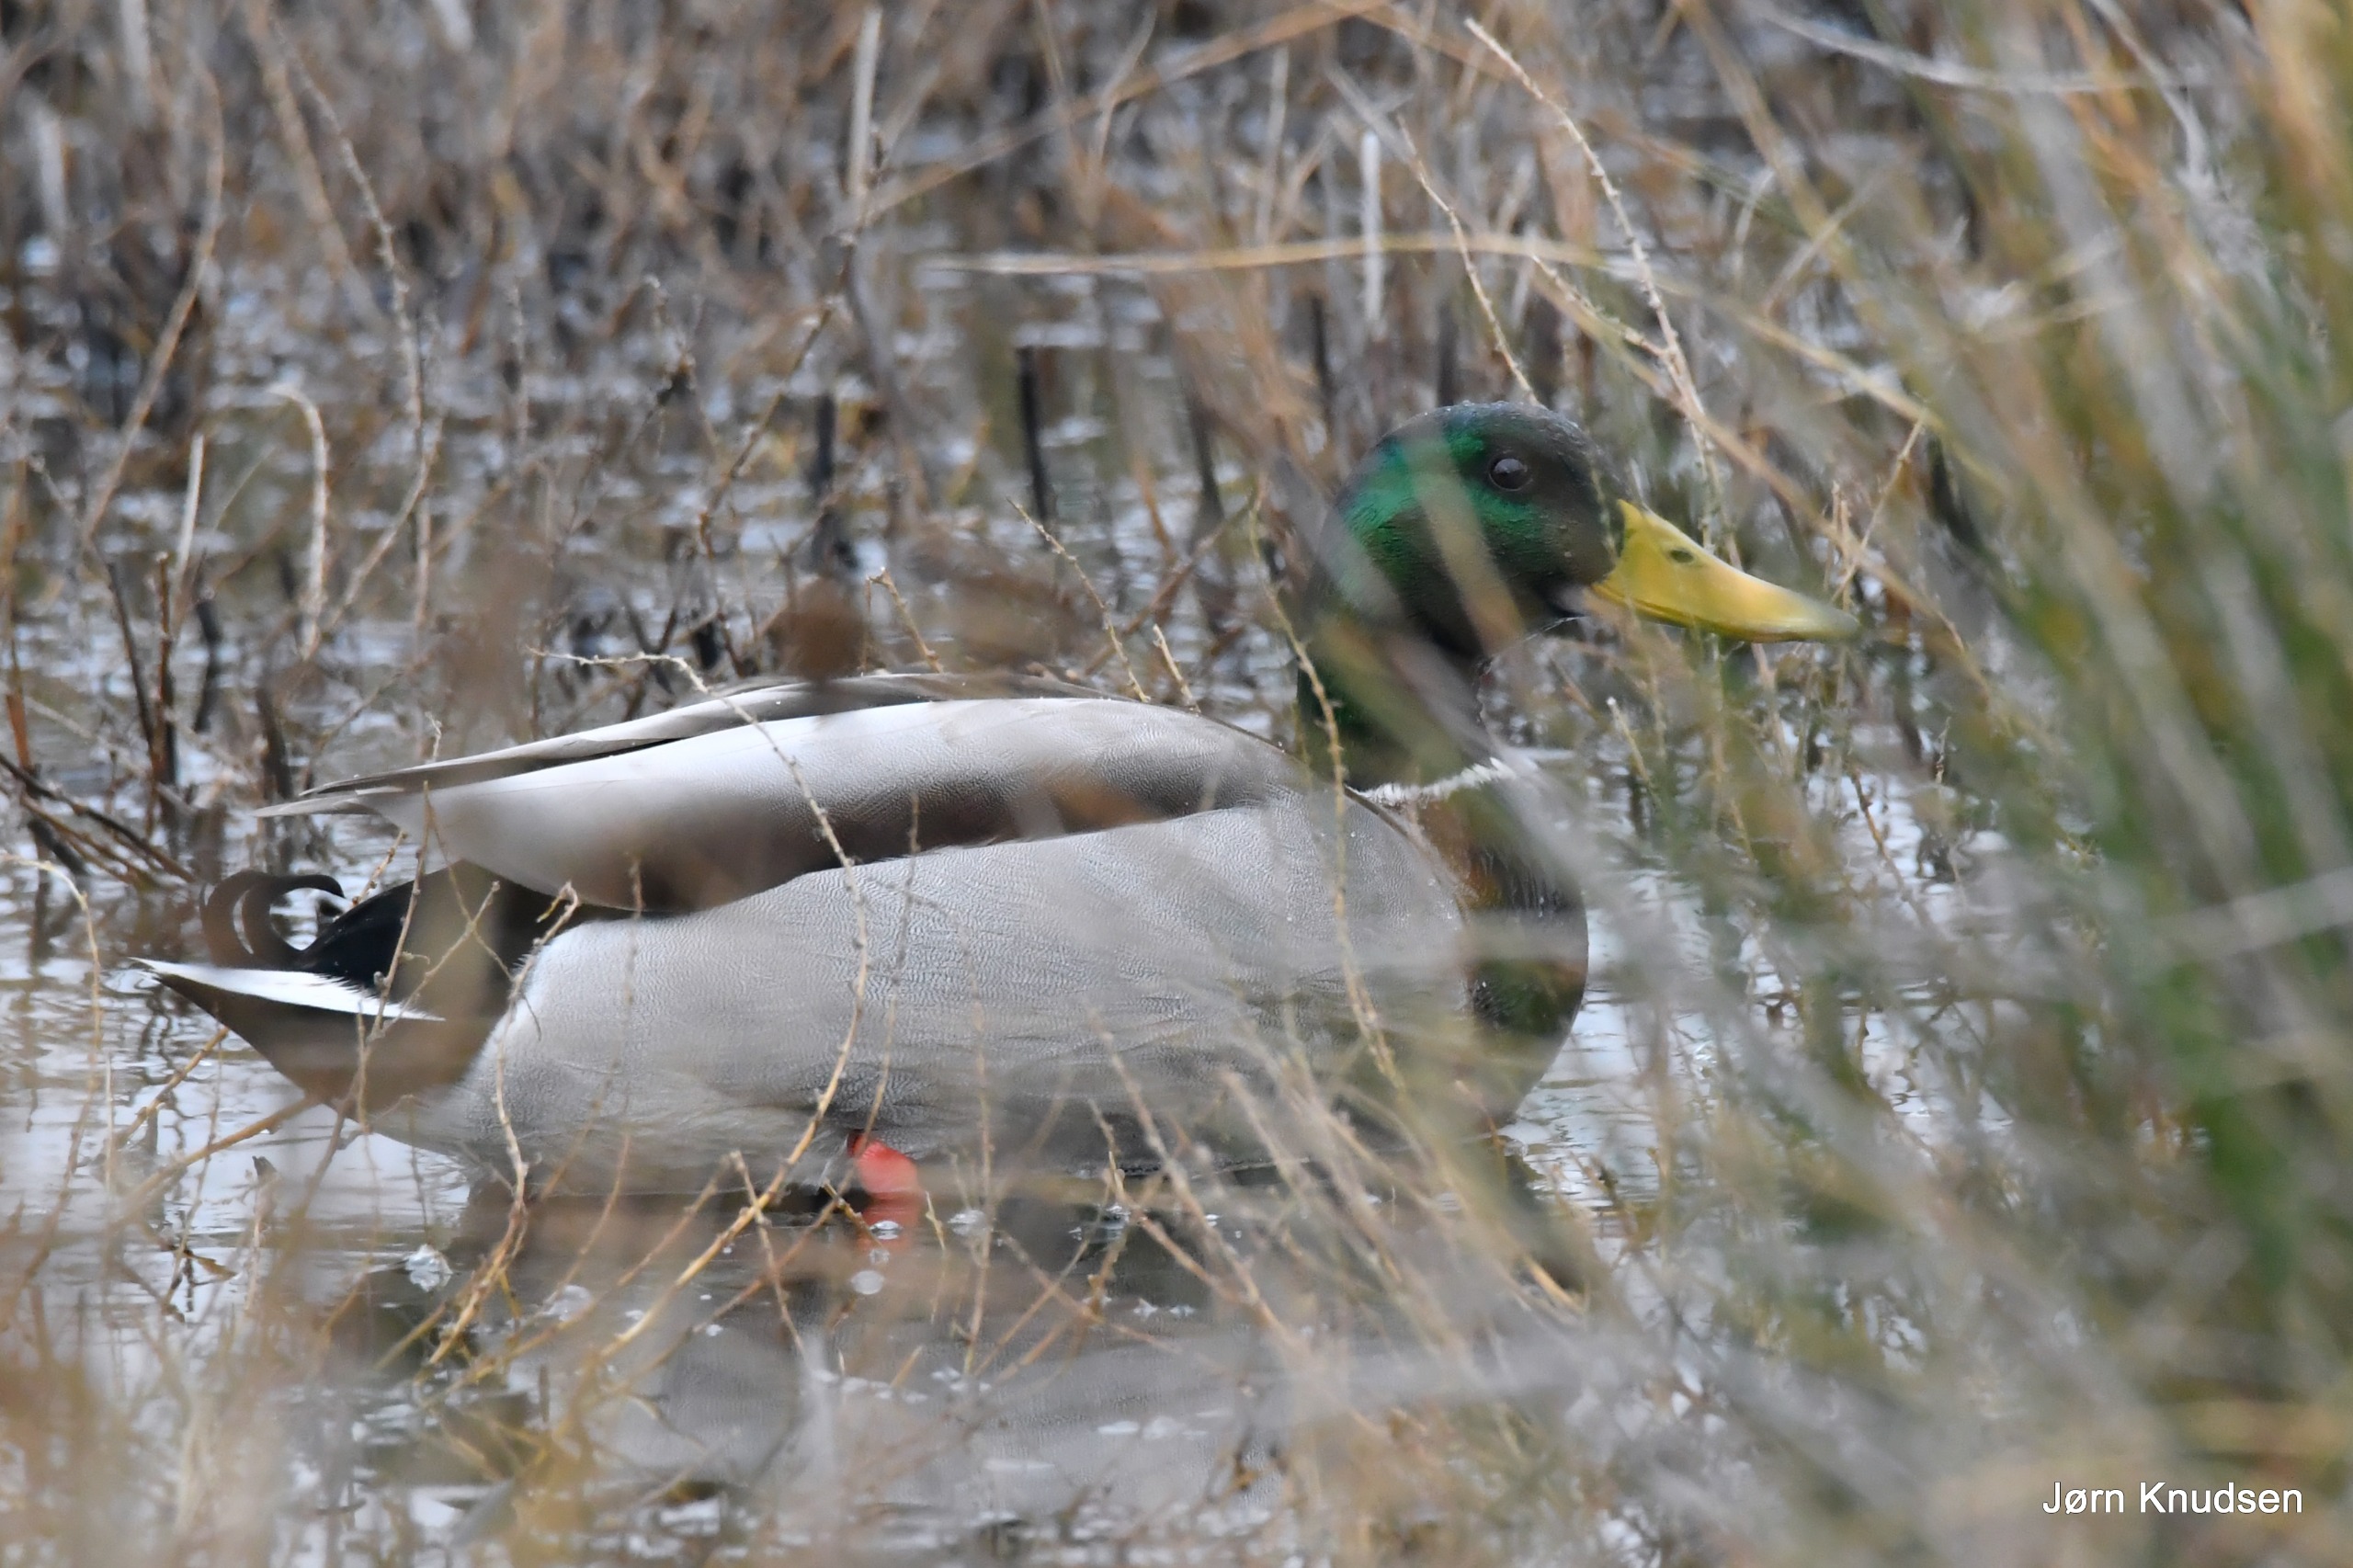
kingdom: Animalia
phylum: Chordata
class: Aves
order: Anseriformes
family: Anatidae
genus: Anas
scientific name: Anas platyrhynchos
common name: Gråand
